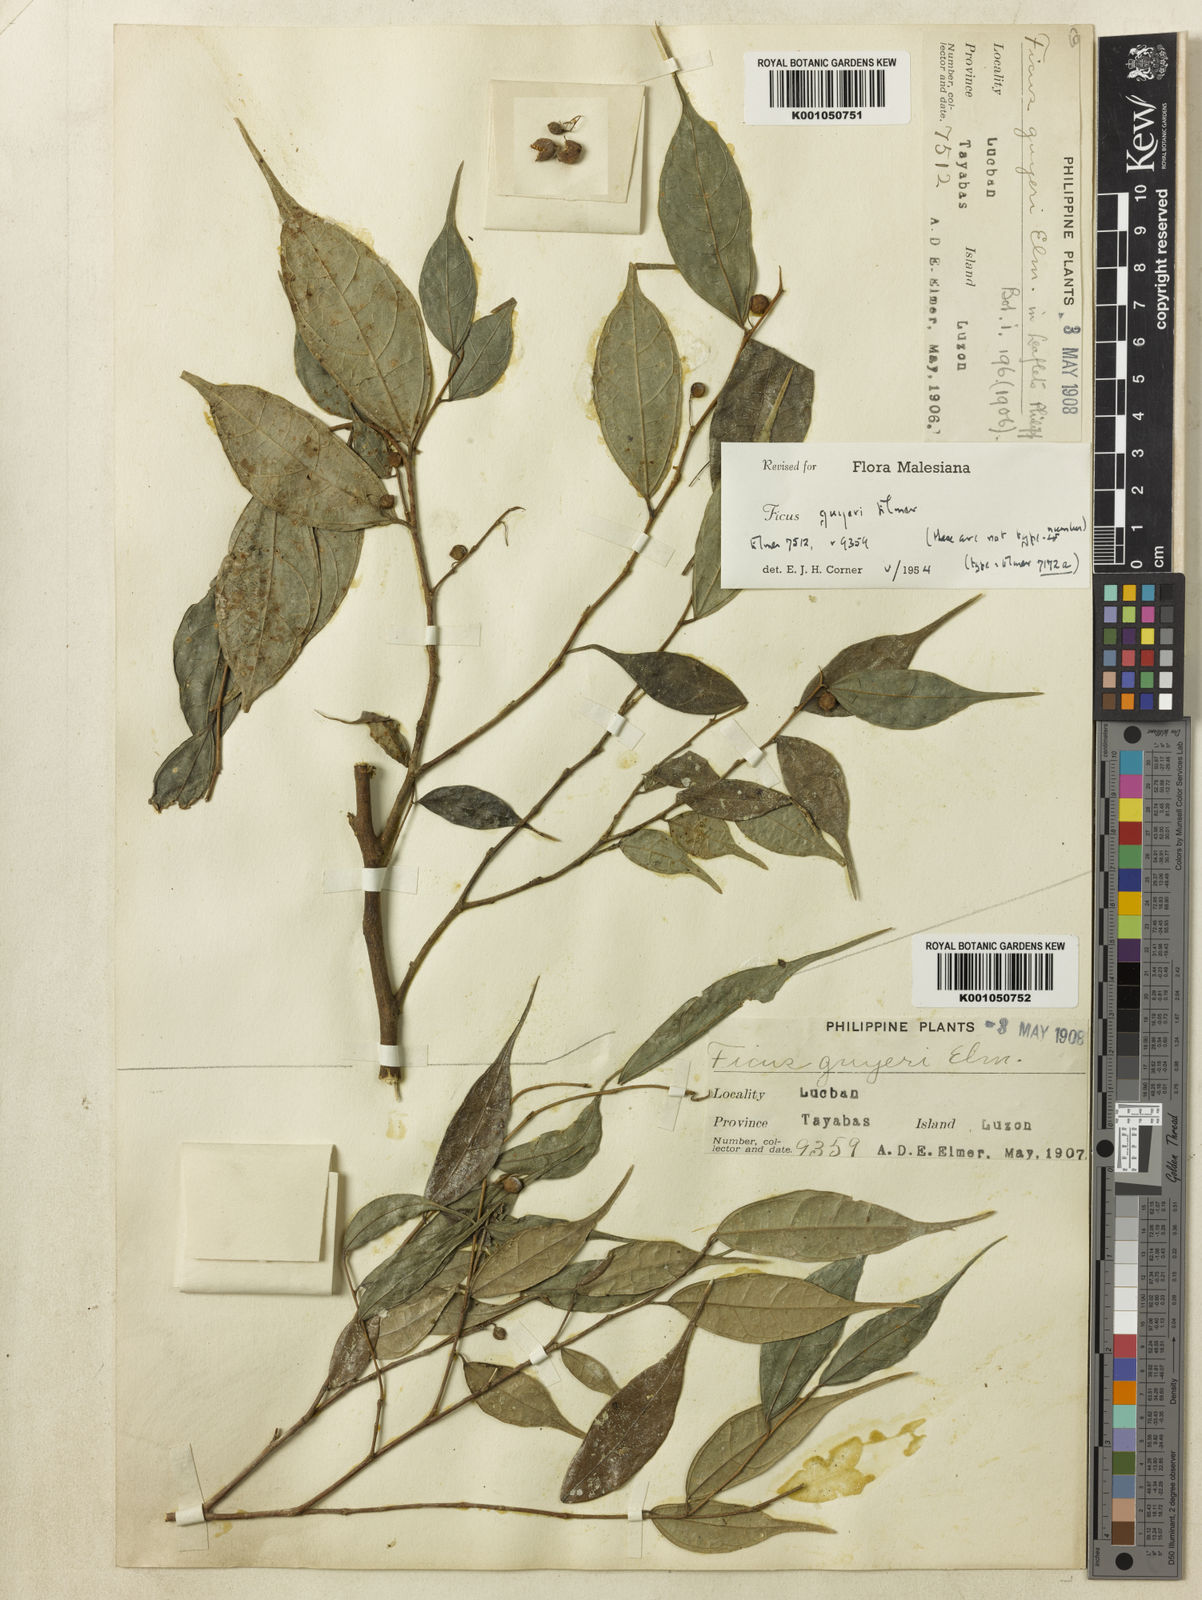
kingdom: Plantae
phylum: Tracheophyta
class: Magnoliopsida
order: Rosales
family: Moraceae
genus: Ficus
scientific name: Ficus ampelos
